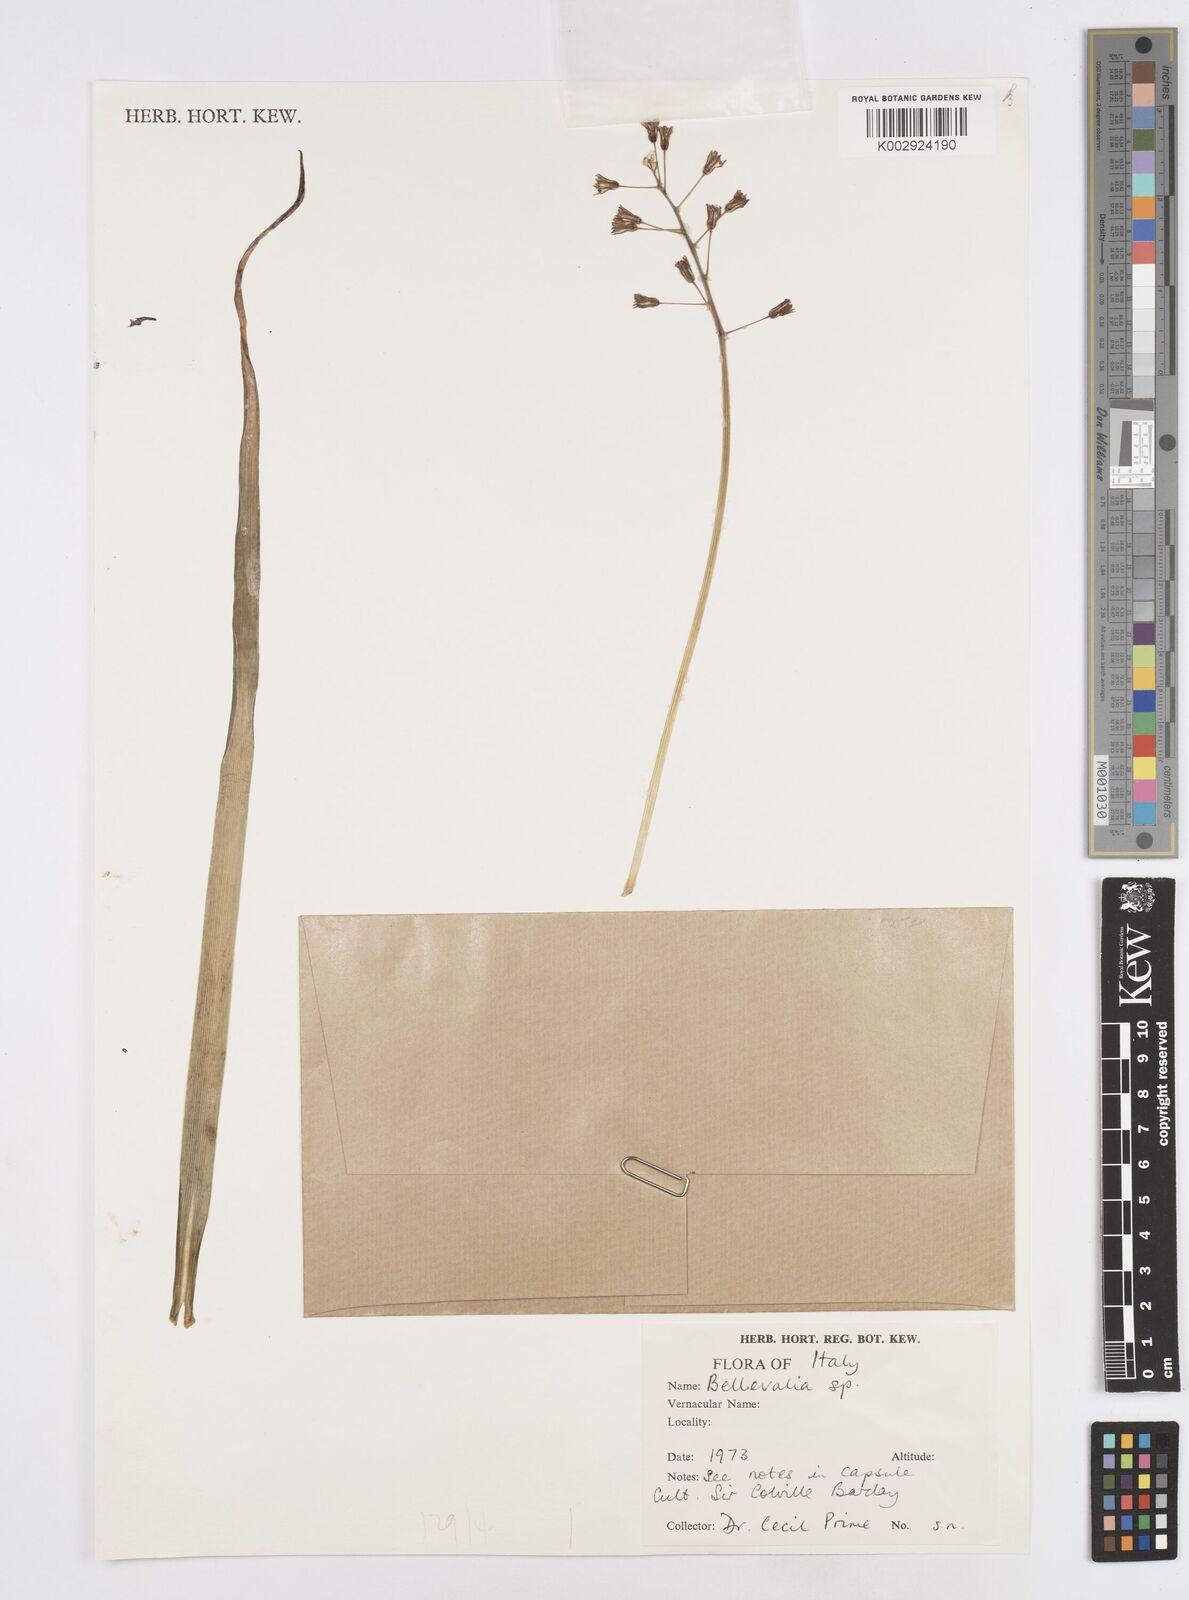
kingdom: Plantae
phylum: Tracheophyta
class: Liliopsida
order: Asparagales
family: Asparagaceae
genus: Bellevalia
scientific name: Bellevalia
